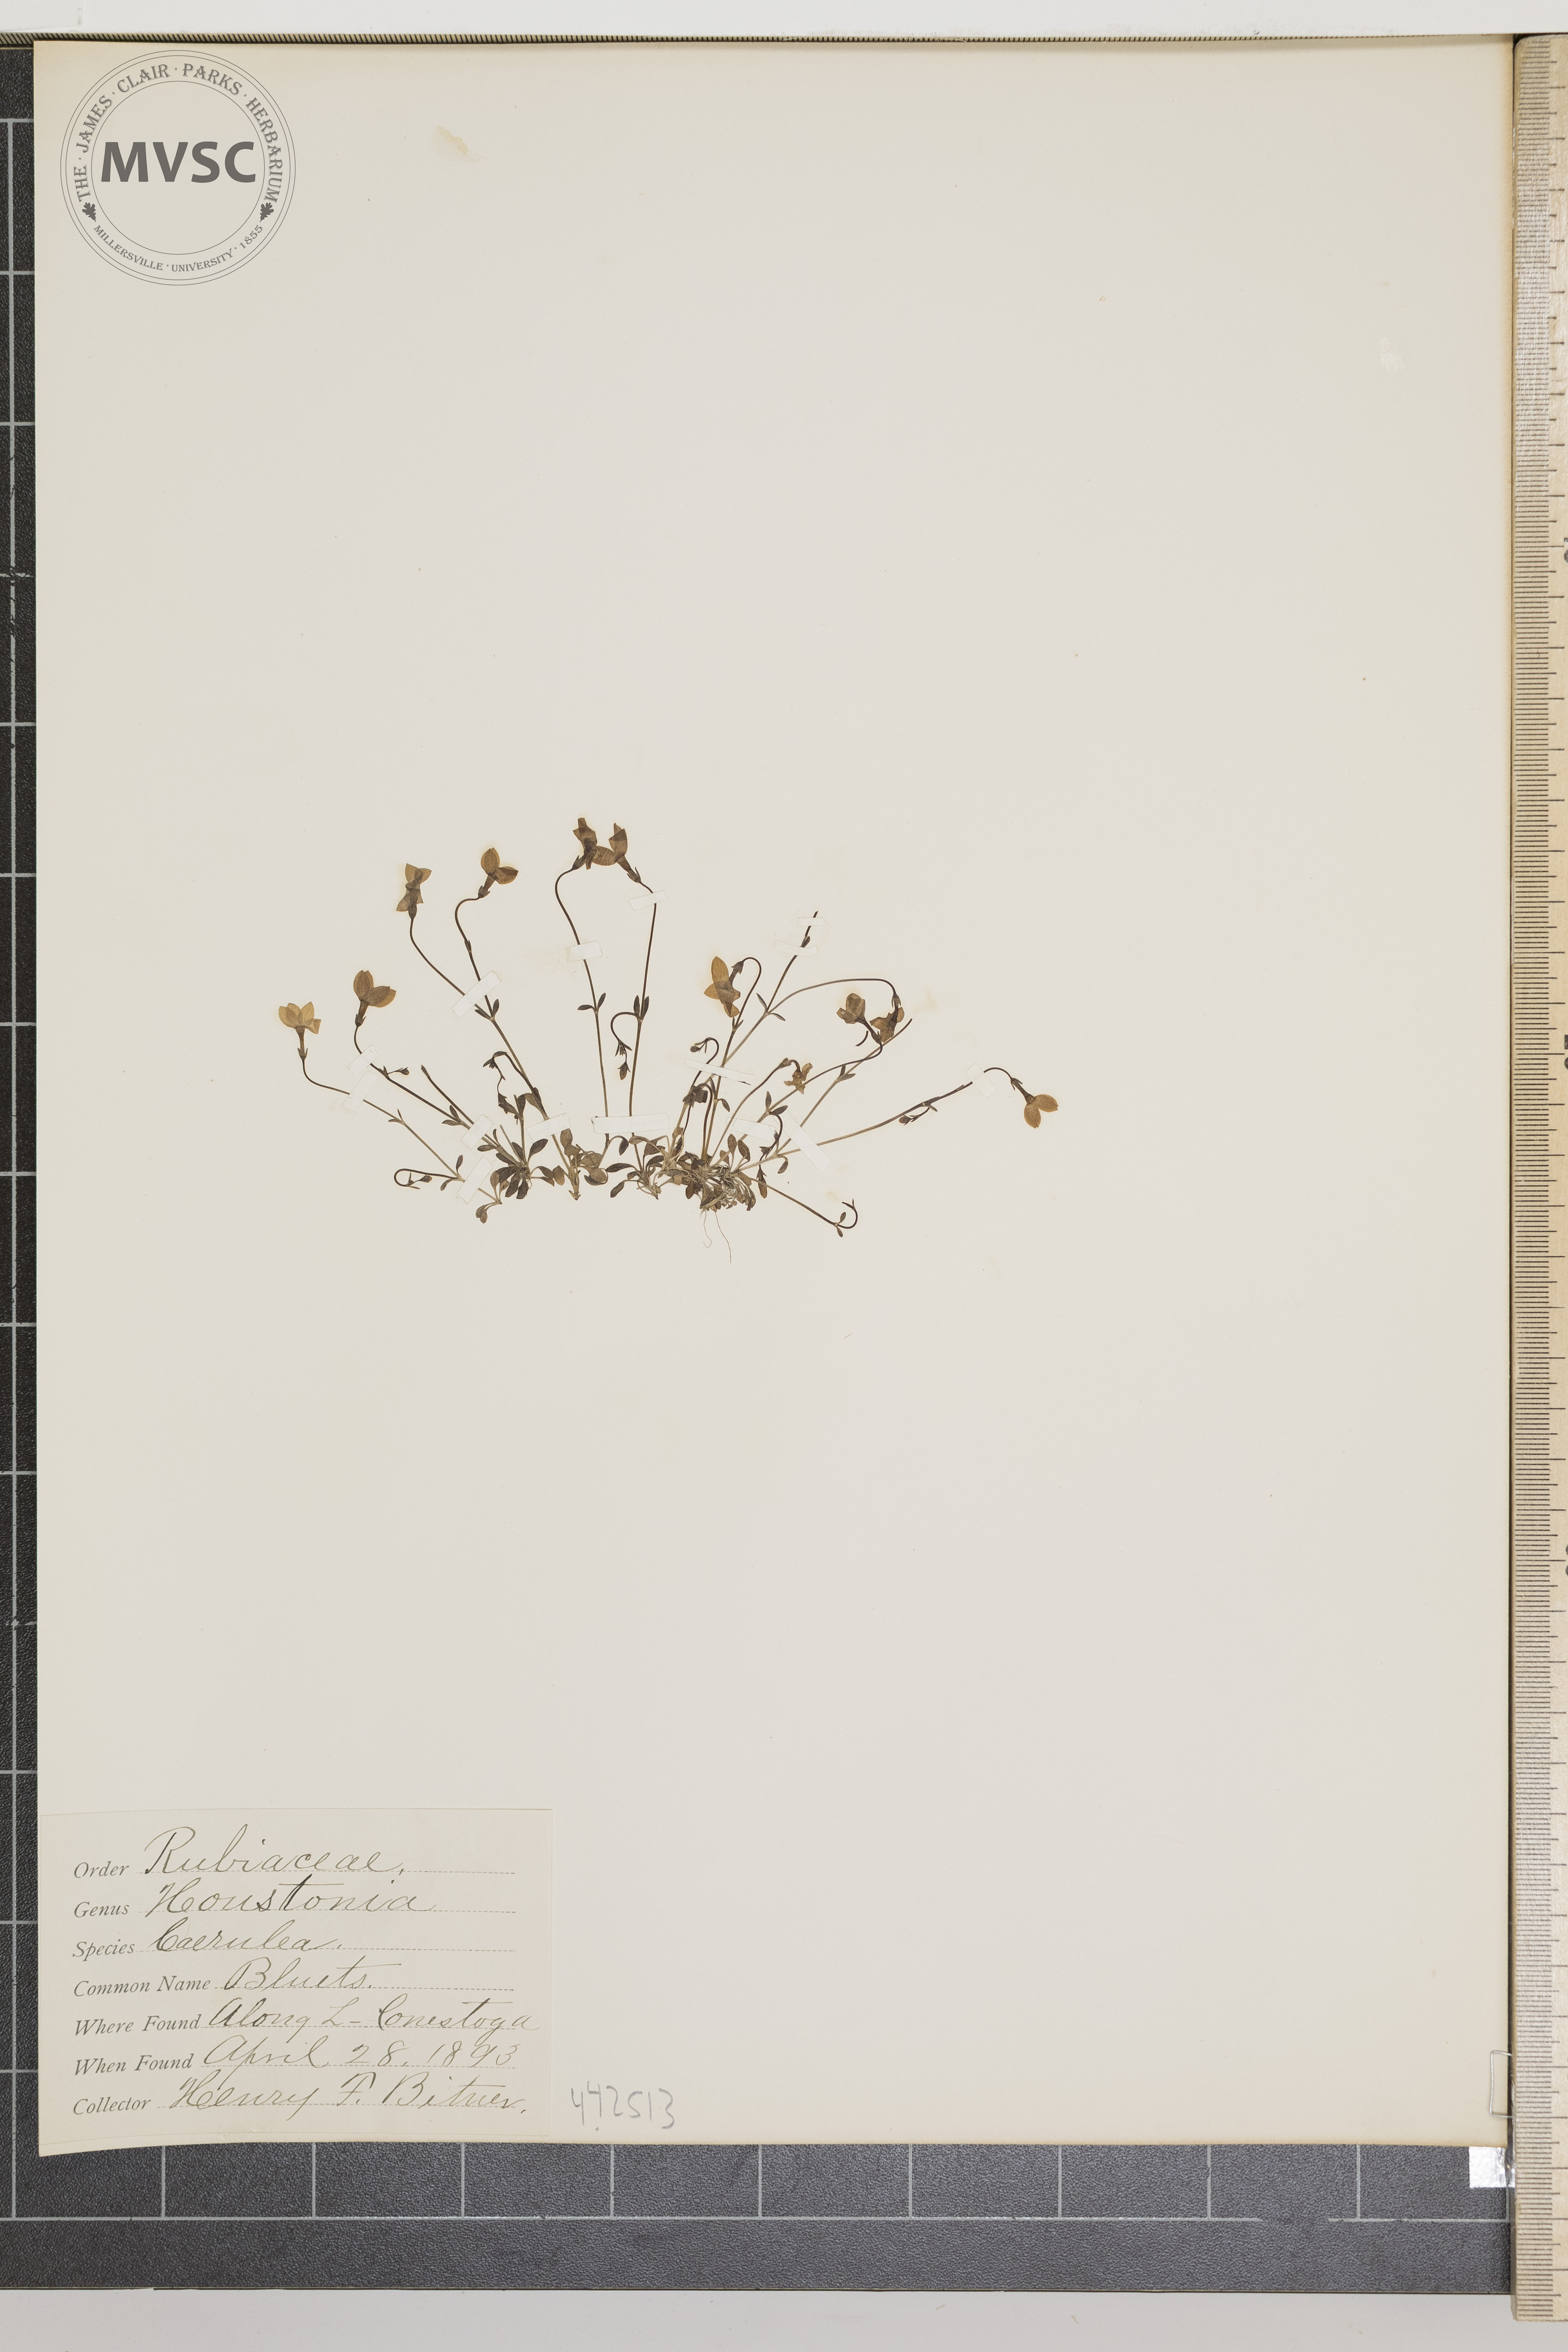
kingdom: Plantae
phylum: Tracheophyta
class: Magnoliopsida
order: Gentianales
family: Rubiaceae
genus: Houstonia
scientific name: Houstonia caerulea
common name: Bluets
